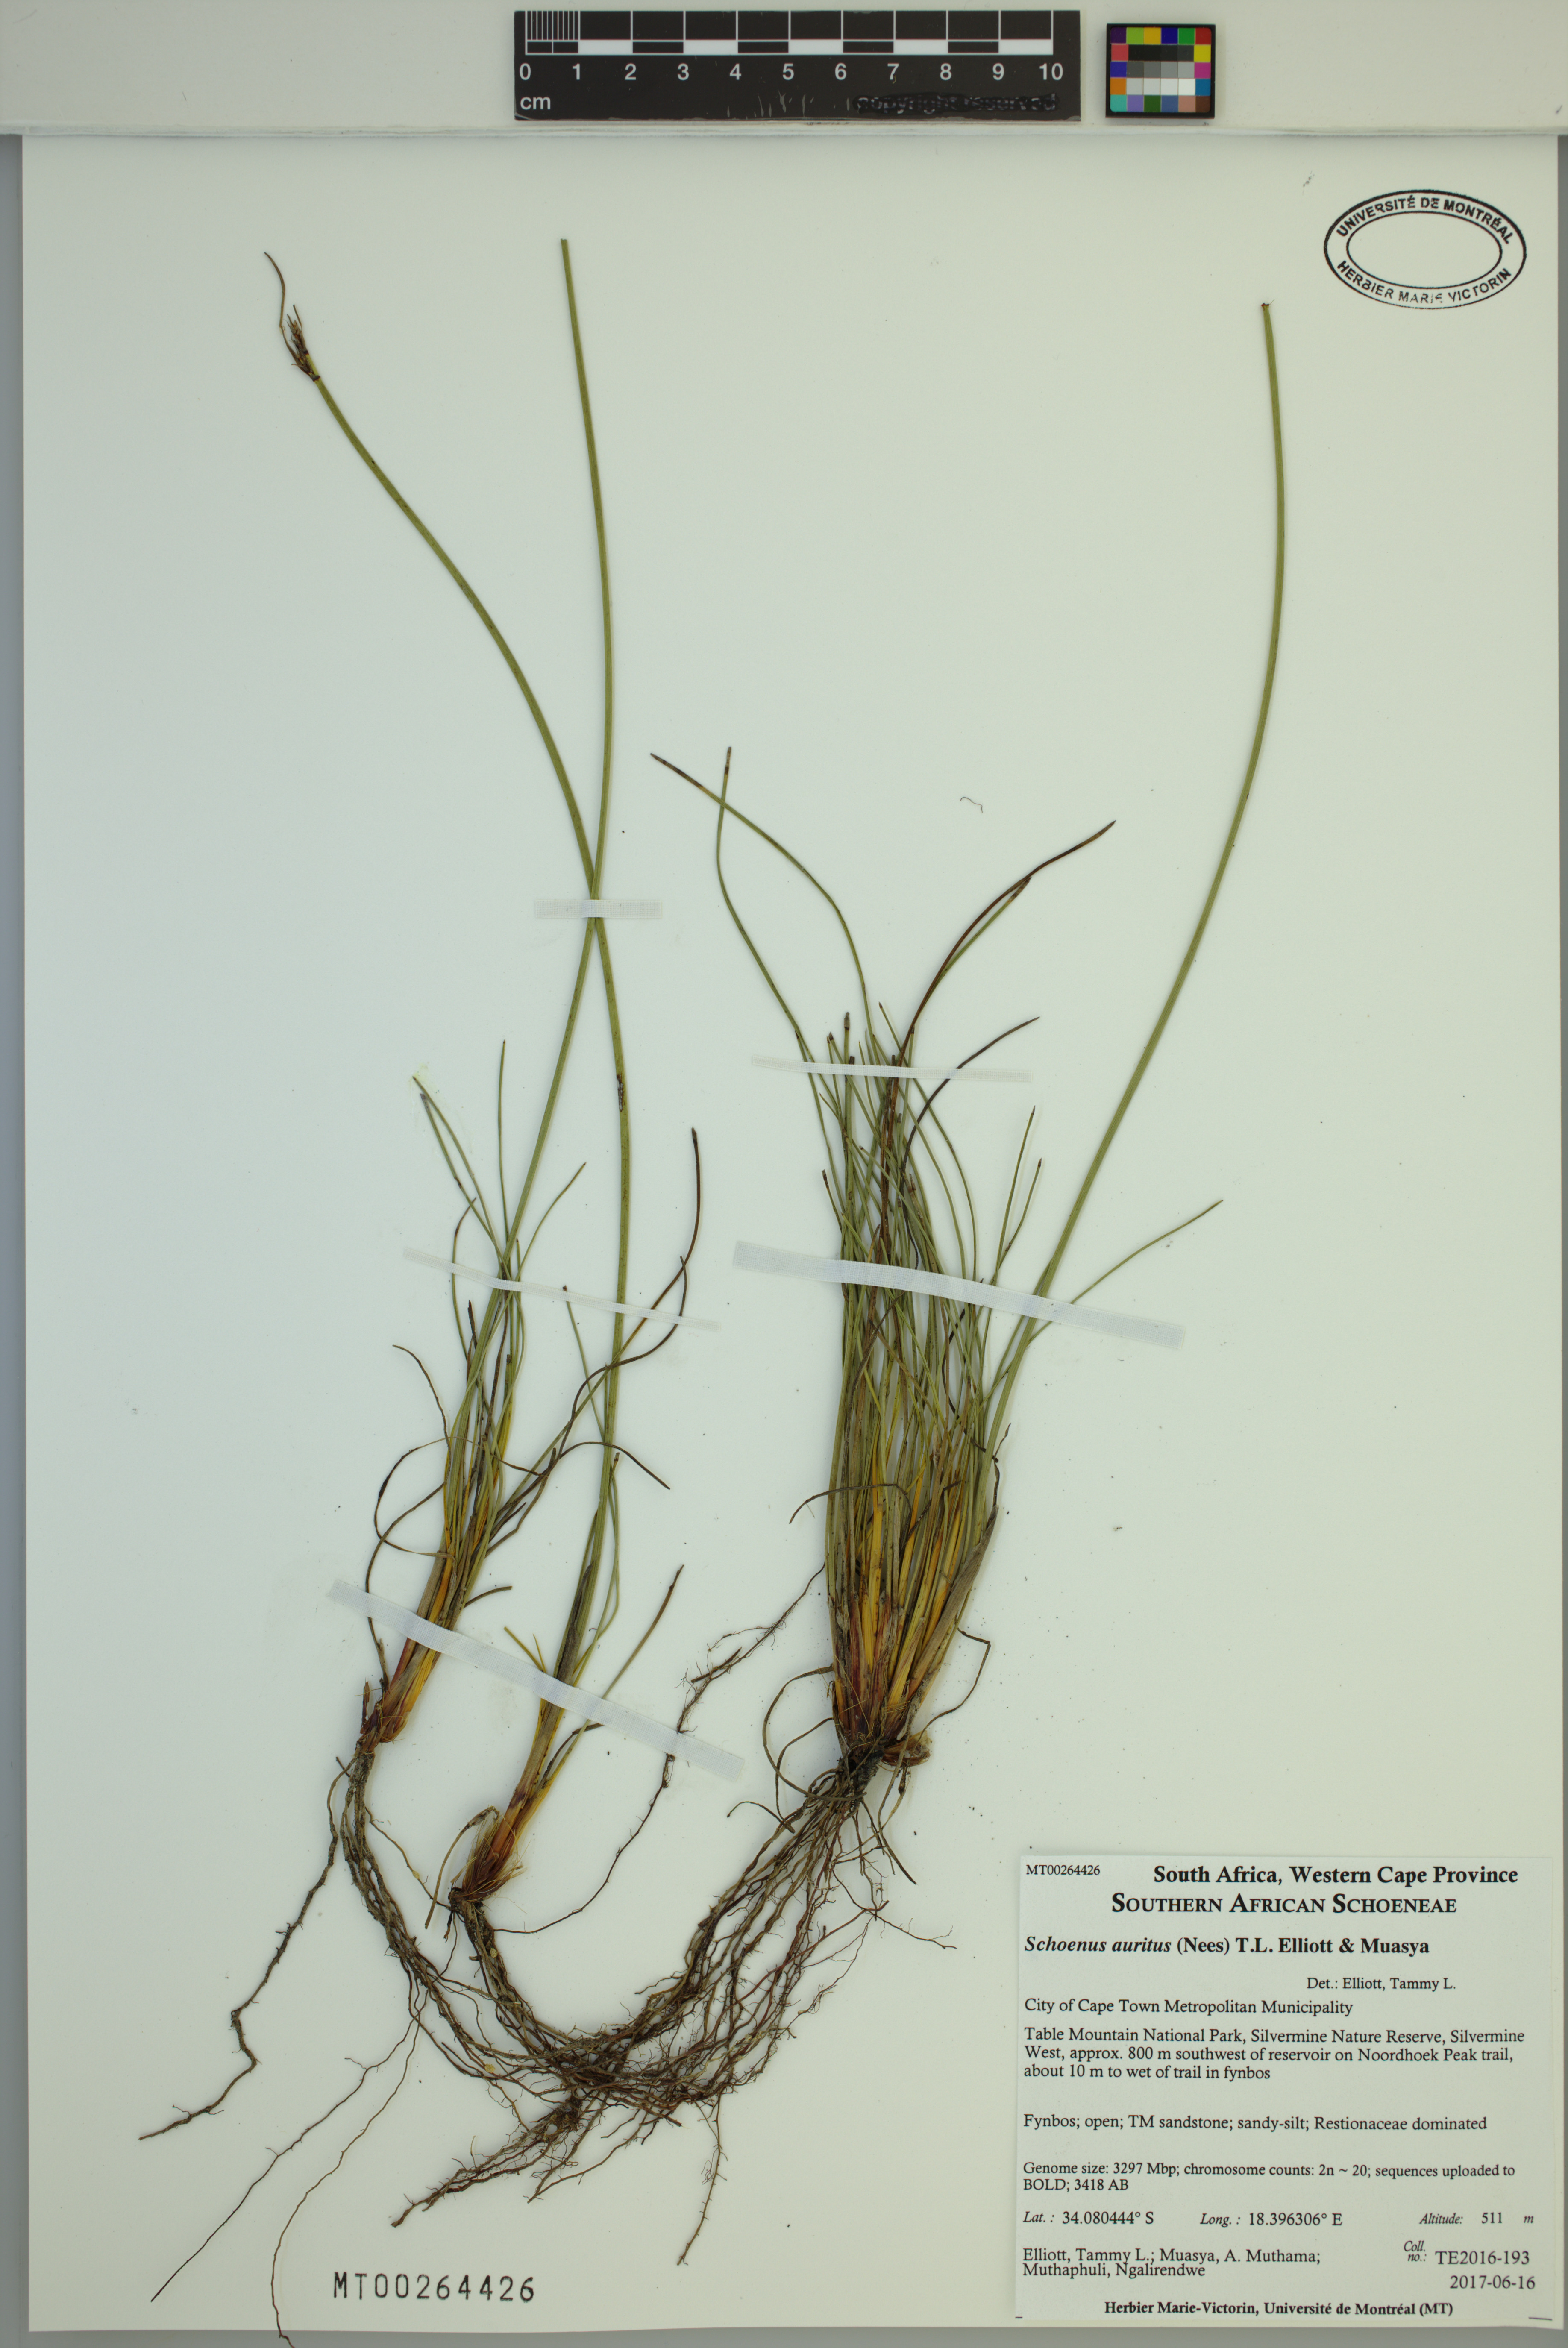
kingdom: Plantae
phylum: Tracheophyta
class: Liliopsida
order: Poales
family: Cyperaceae
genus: Schoenus
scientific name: Schoenus auritus
